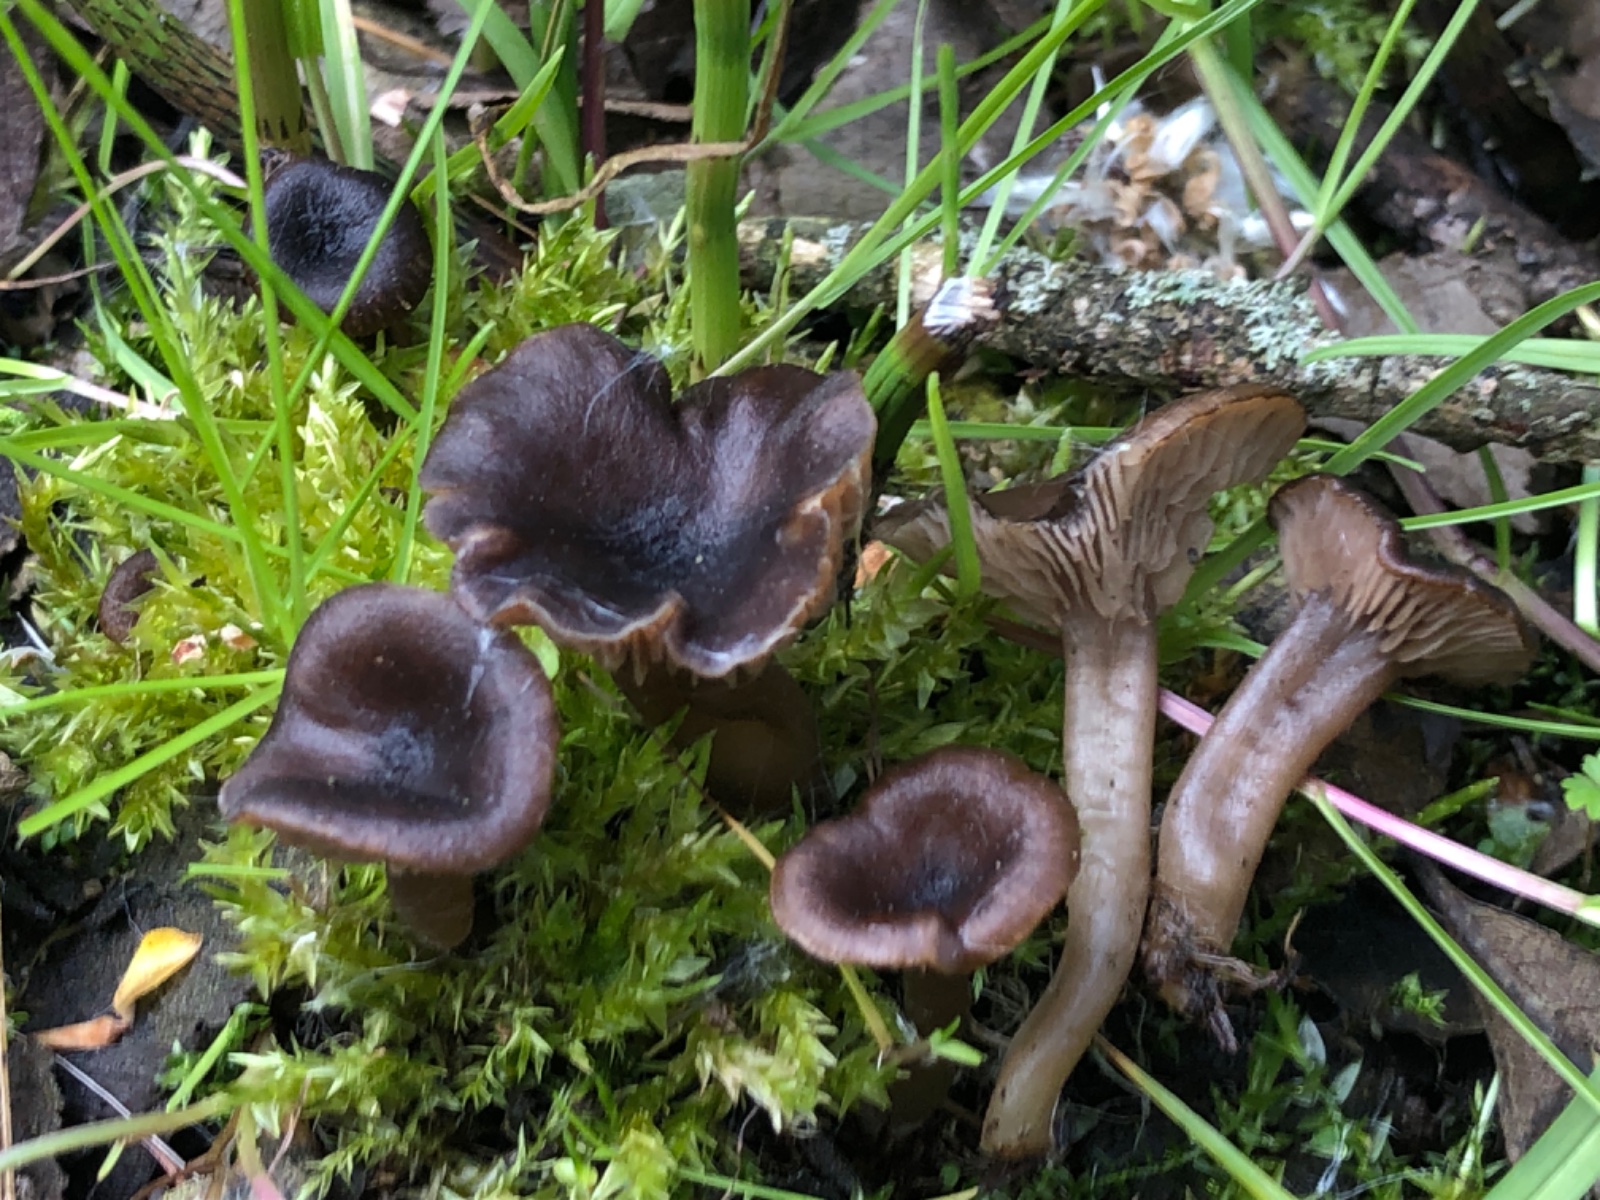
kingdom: Fungi
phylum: Basidiomycota
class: Agaricomycetes
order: Agaricales
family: Entolomataceae
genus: Entoloma
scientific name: Entoloma
